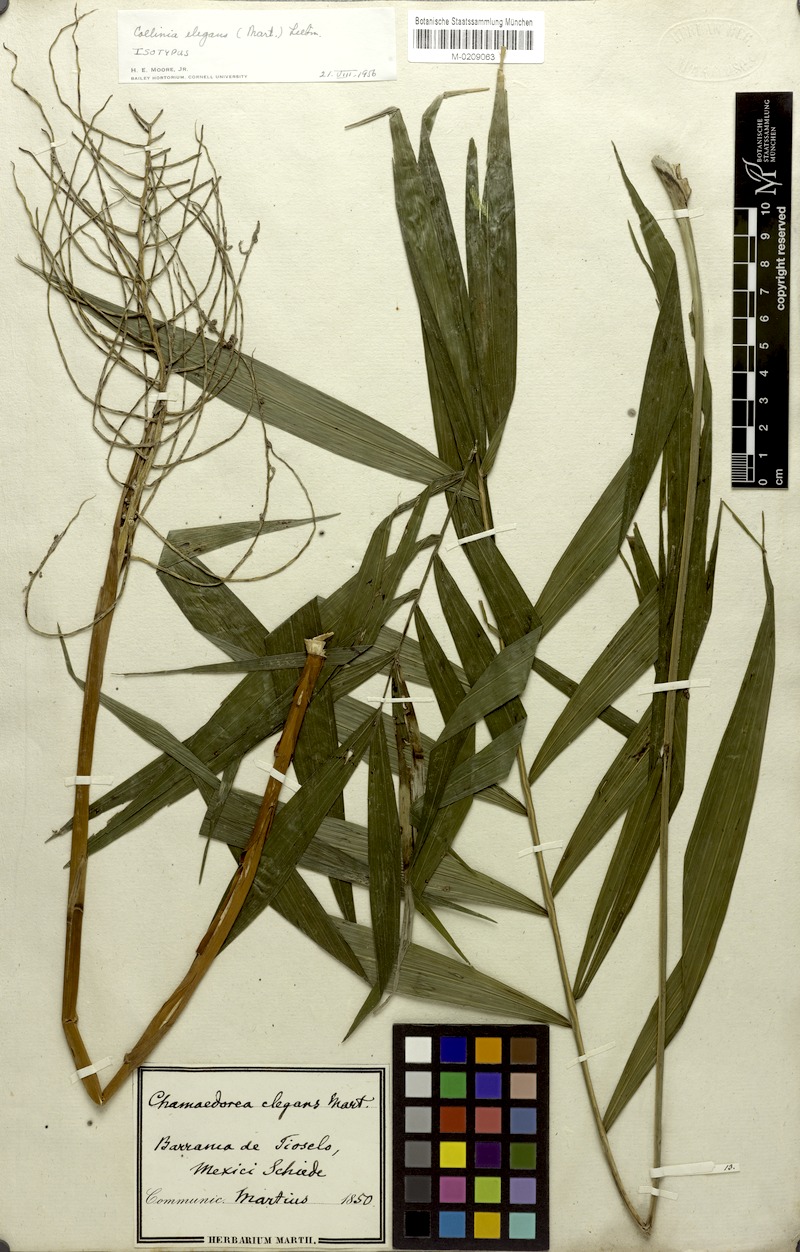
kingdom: Plantae
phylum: Tracheophyta
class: Liliopsida
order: Arecales
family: Arecaceae
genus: Chamaedorea
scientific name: Chamaedorea elegans
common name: Good-luck palm
